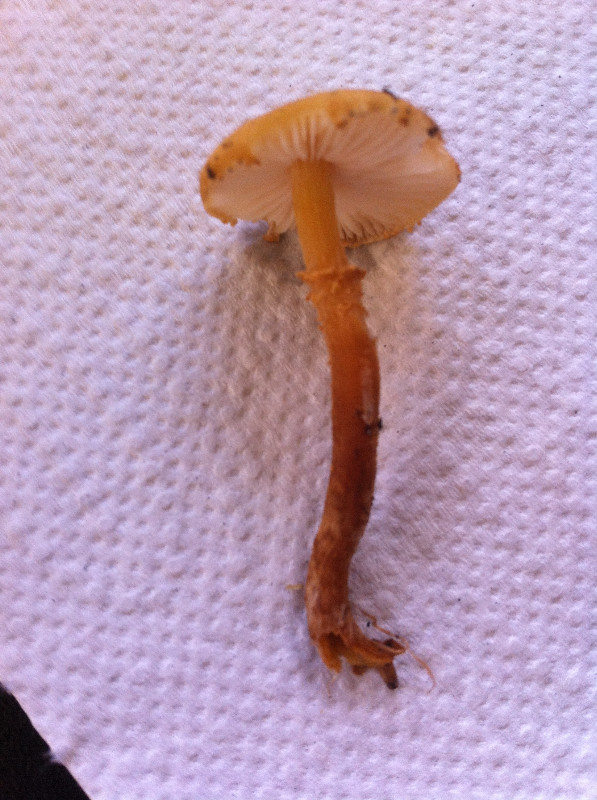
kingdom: Fungi
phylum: Basidiomycota
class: Agaricomycetes
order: Agaricales
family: Tricholomataceae
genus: Cystoderma
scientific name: Cystoderma amianthinum
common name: okkergul grynhat
